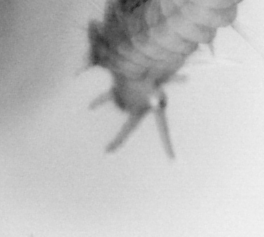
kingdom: Animalia
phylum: Annelida
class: Polychaeta
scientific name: Polychaeta
